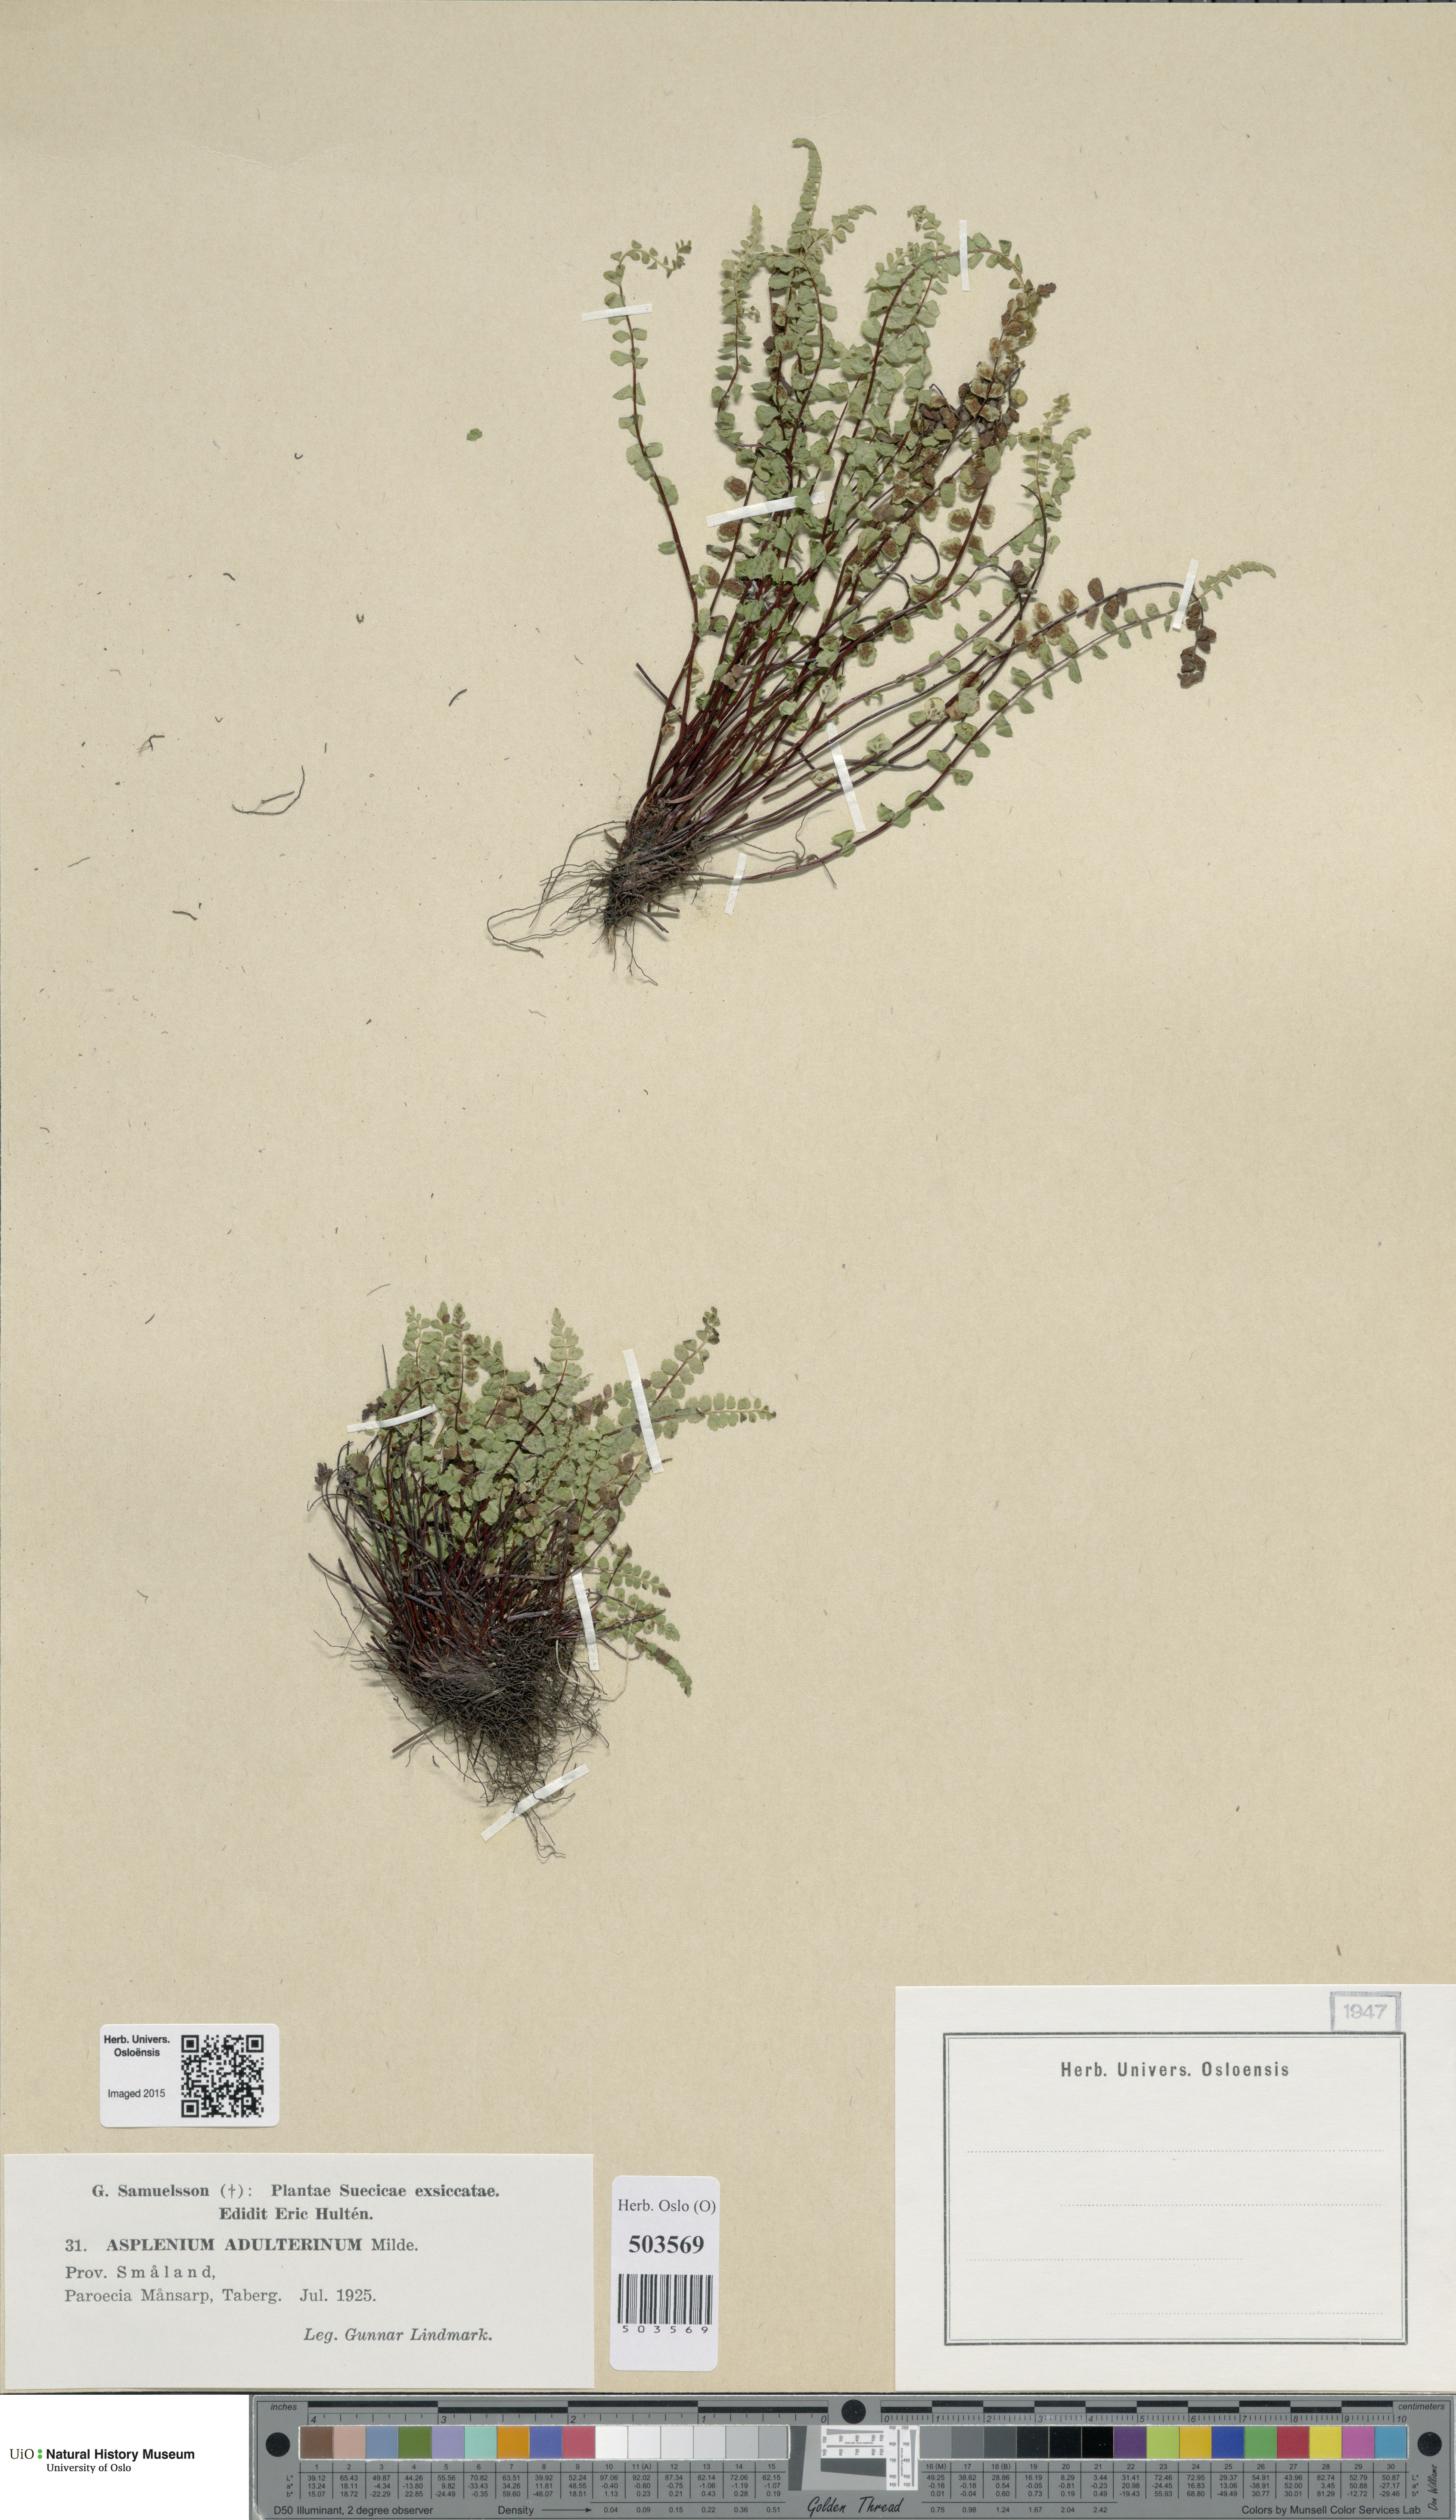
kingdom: Plantae
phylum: Tracheophyta
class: Polypodiopsida
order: Polypodiales
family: Aspleniaceae
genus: Asplenium
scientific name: Asplenium adulterinum
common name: Adulterated spleenwort
